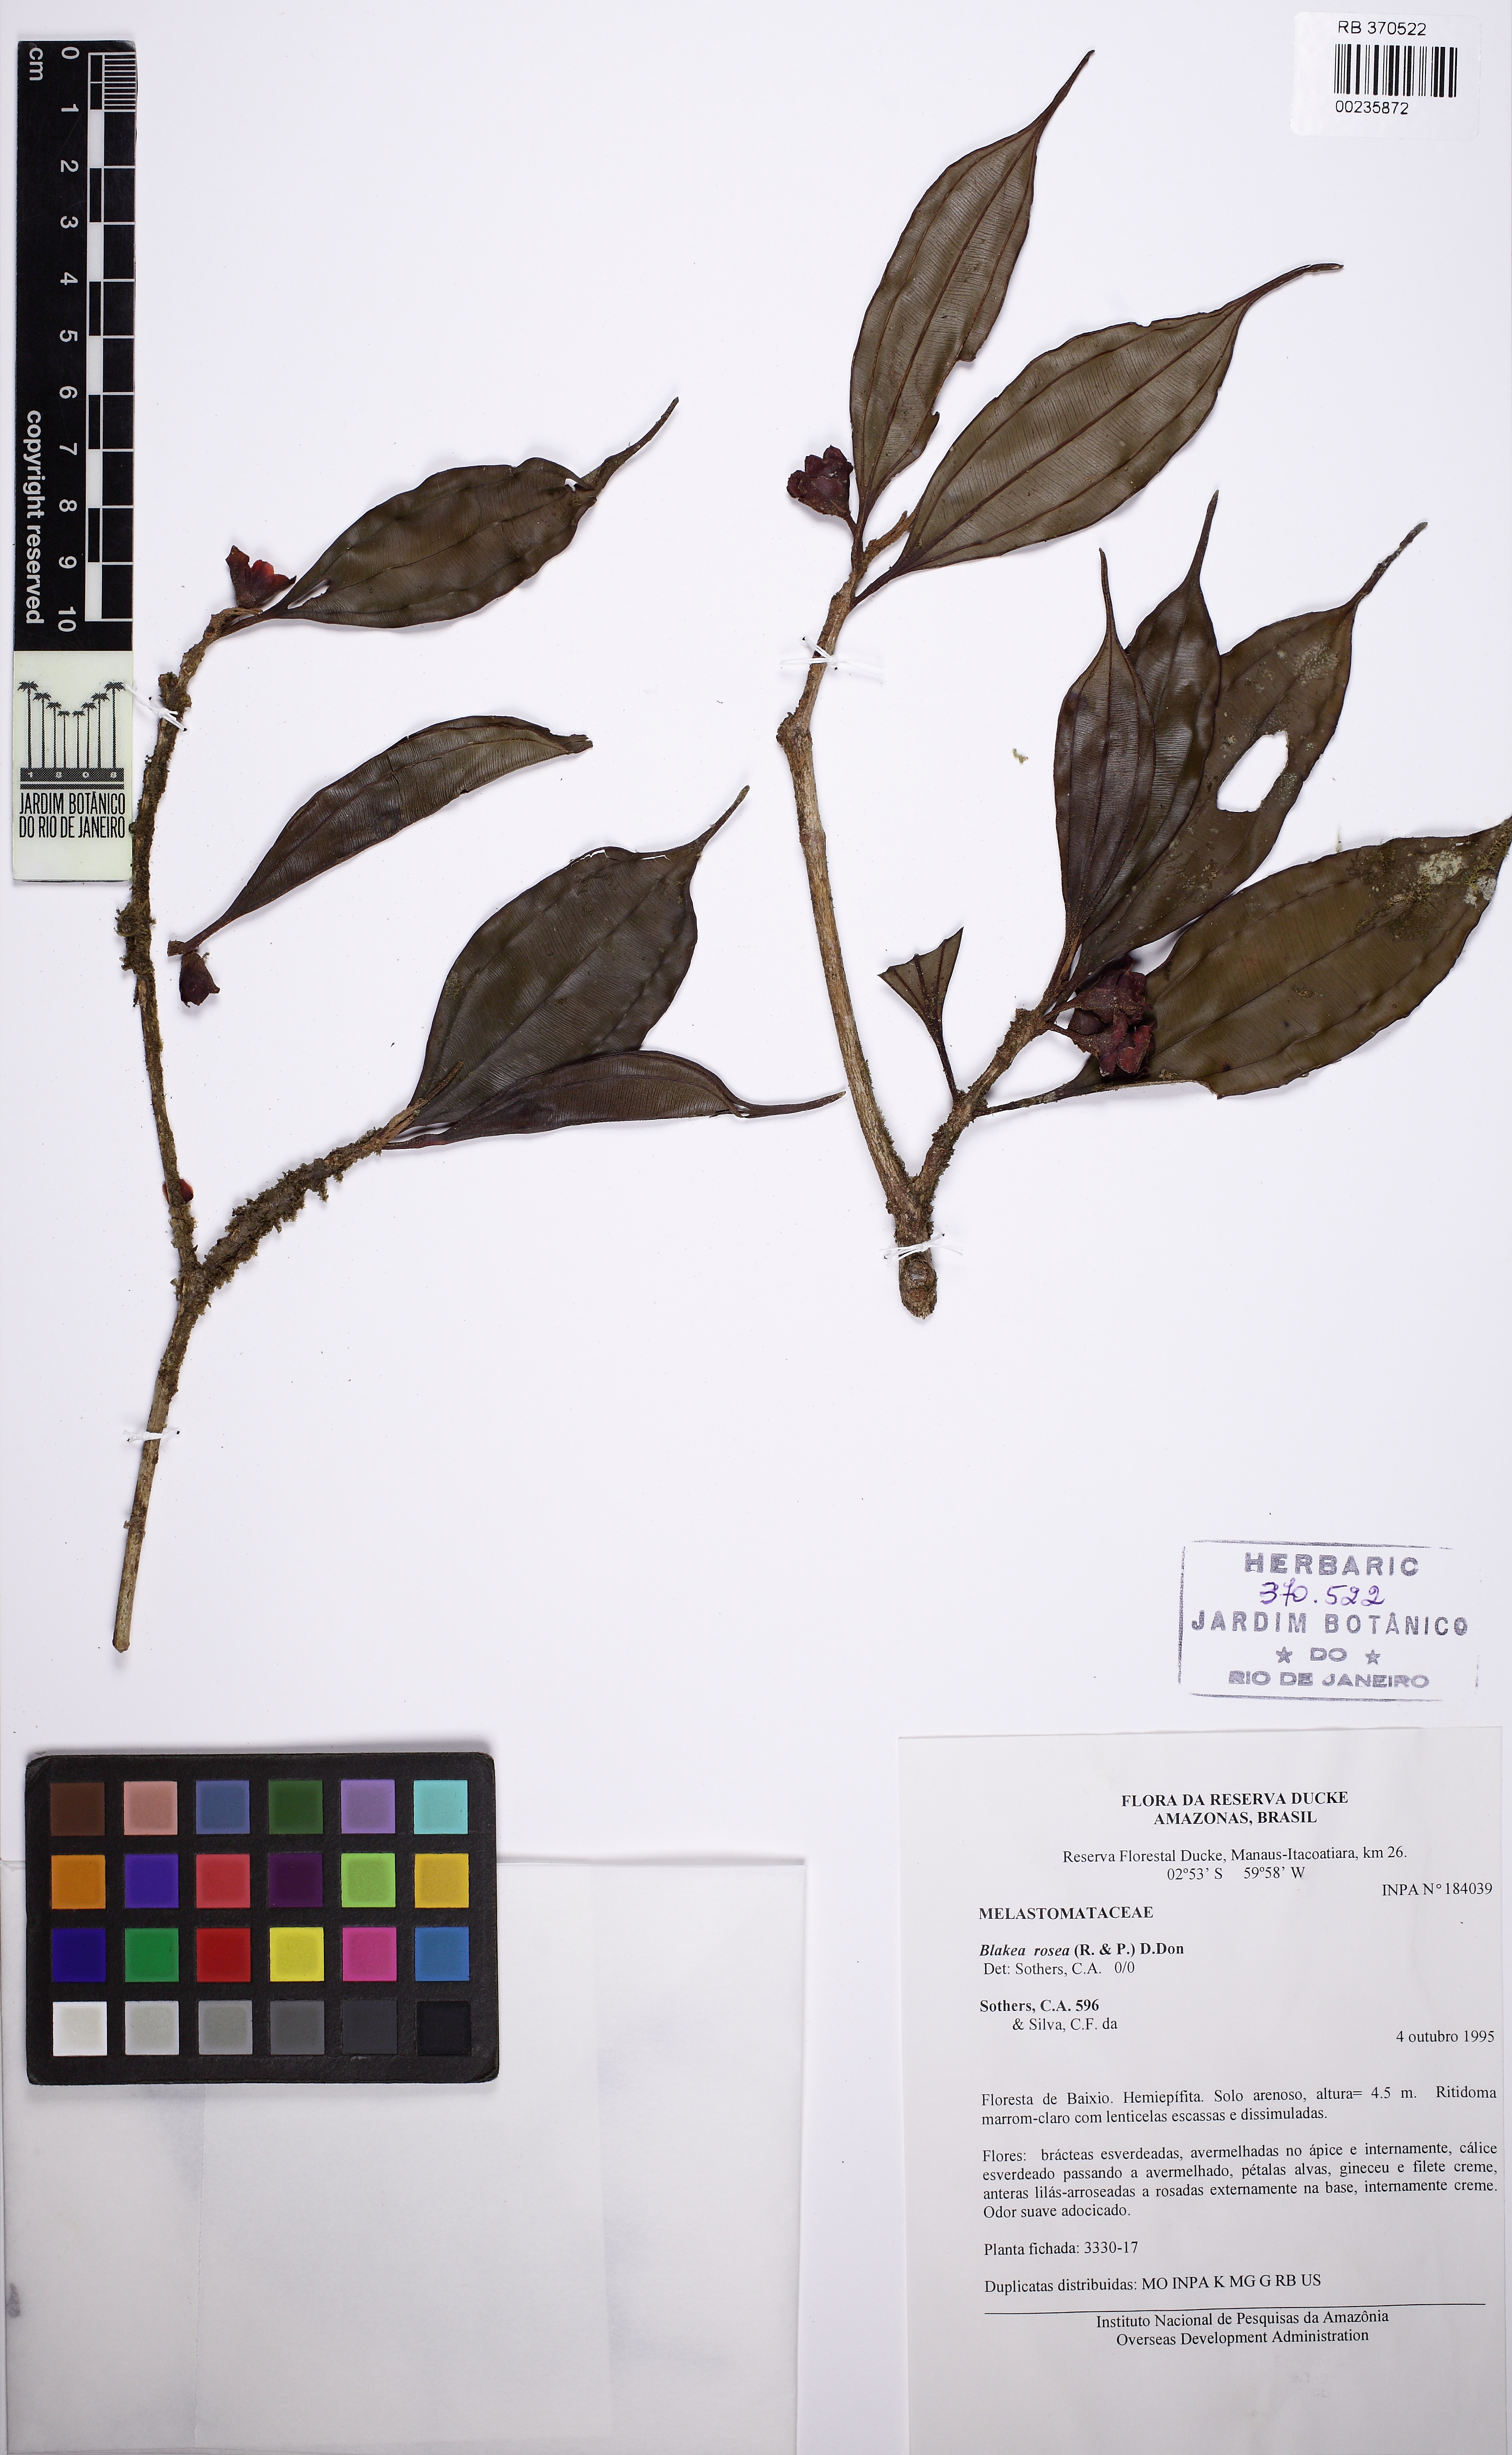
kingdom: Plantae
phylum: Tracheophyta
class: Magnoliopsida
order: Myrtales
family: Melastomataceae
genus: Blakea
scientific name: Blakea rosea
